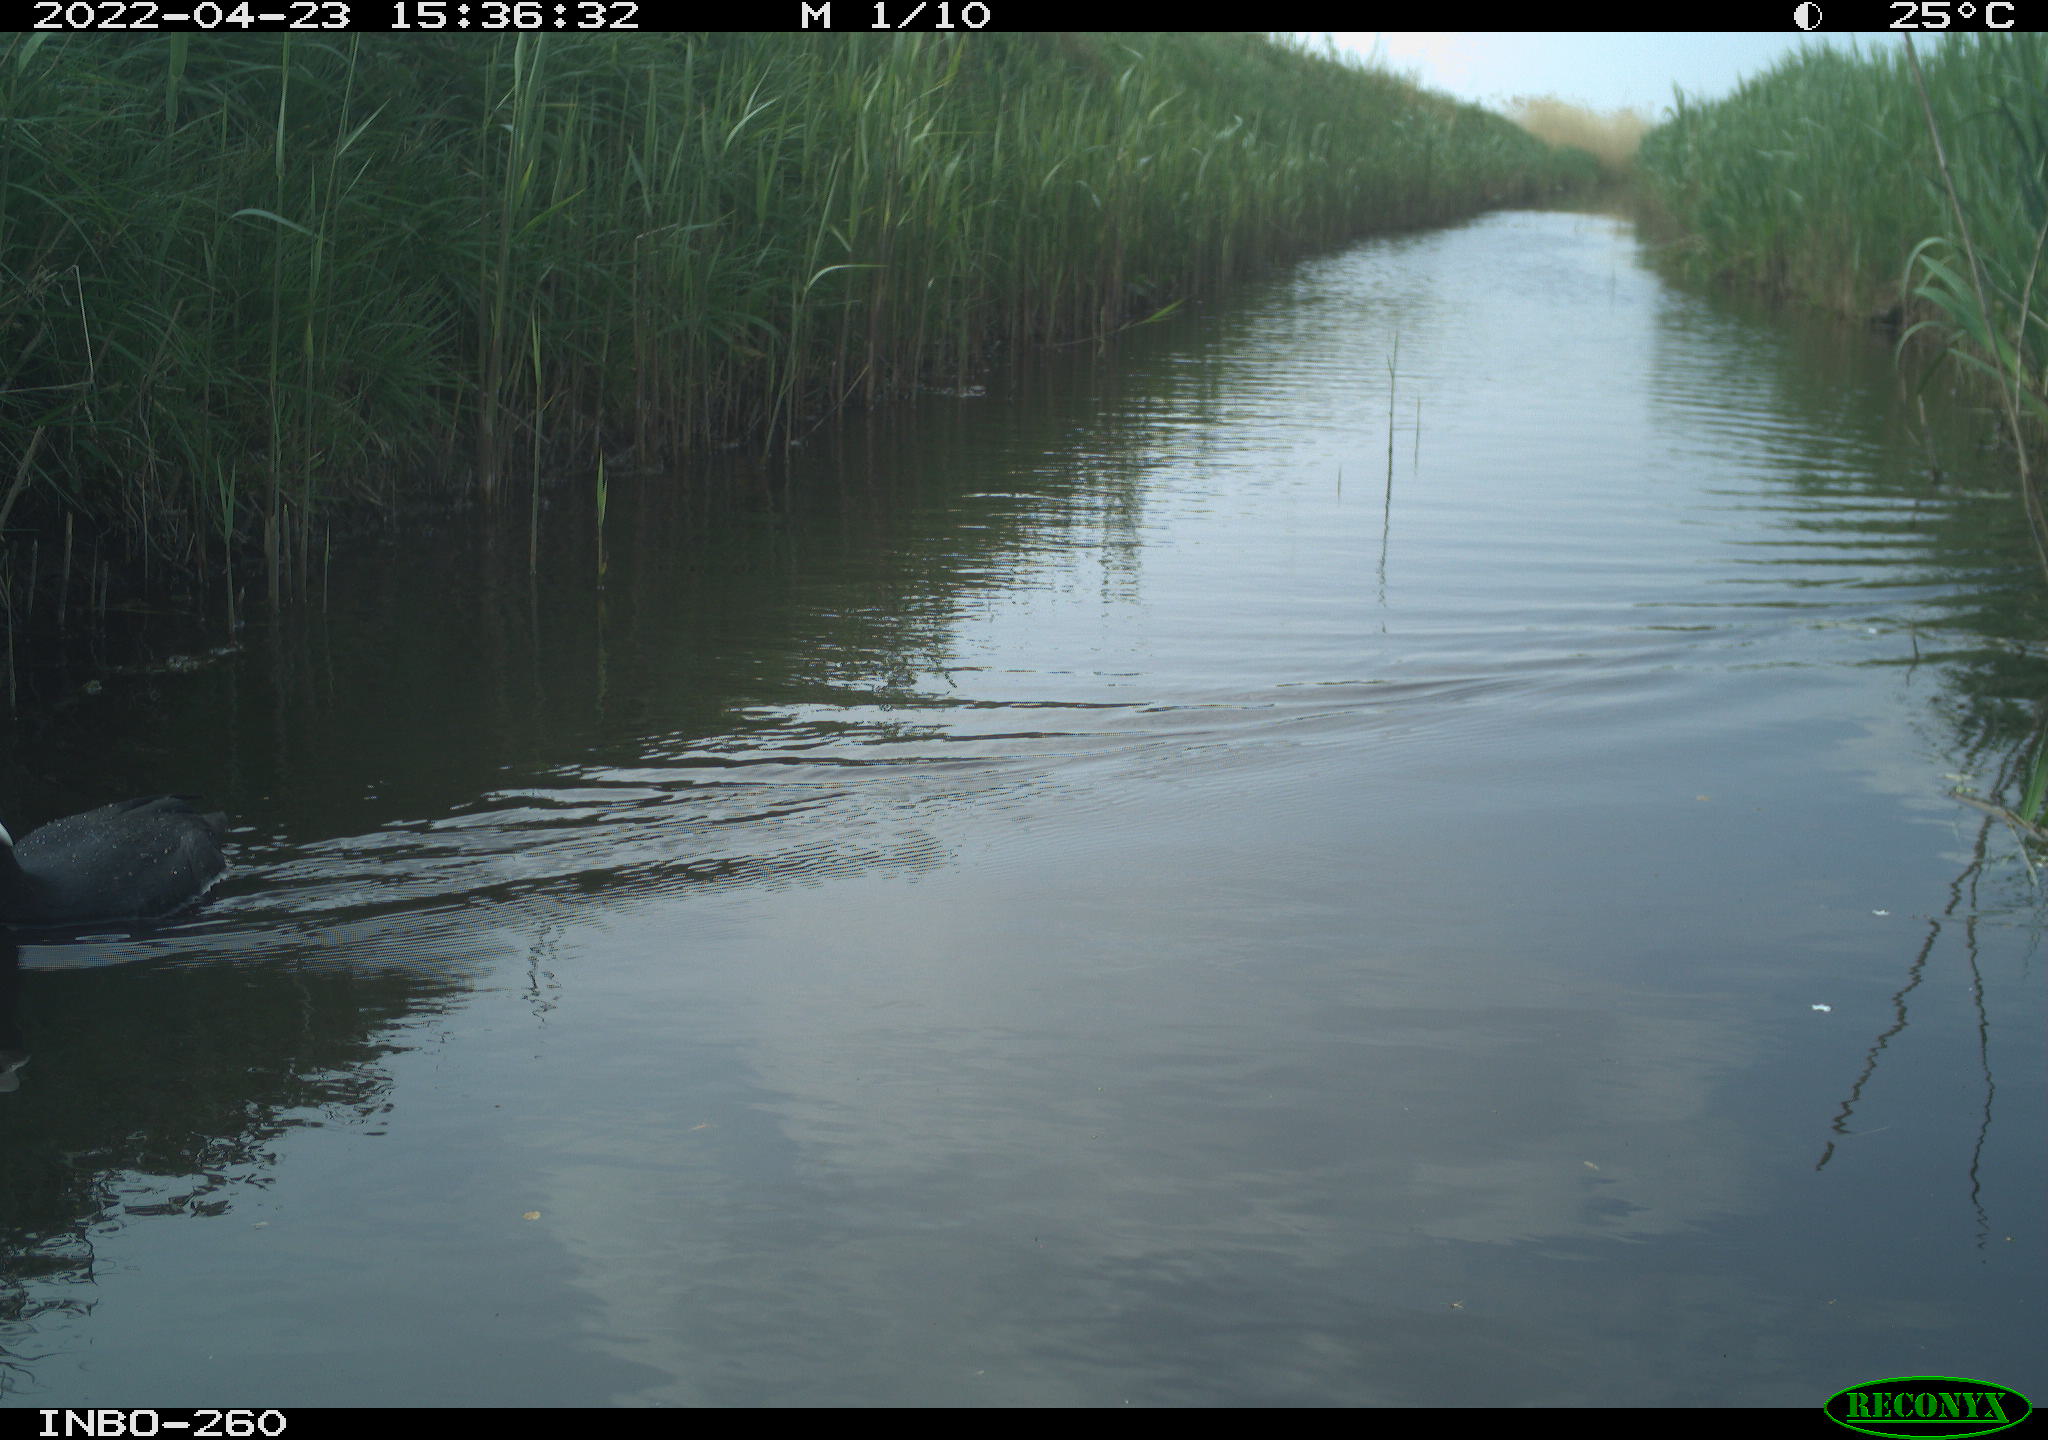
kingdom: Animalia
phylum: Chordata
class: Aves
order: Gruiformes
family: Rallidae
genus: Fulica
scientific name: Fulica atra
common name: Eurasian coot
